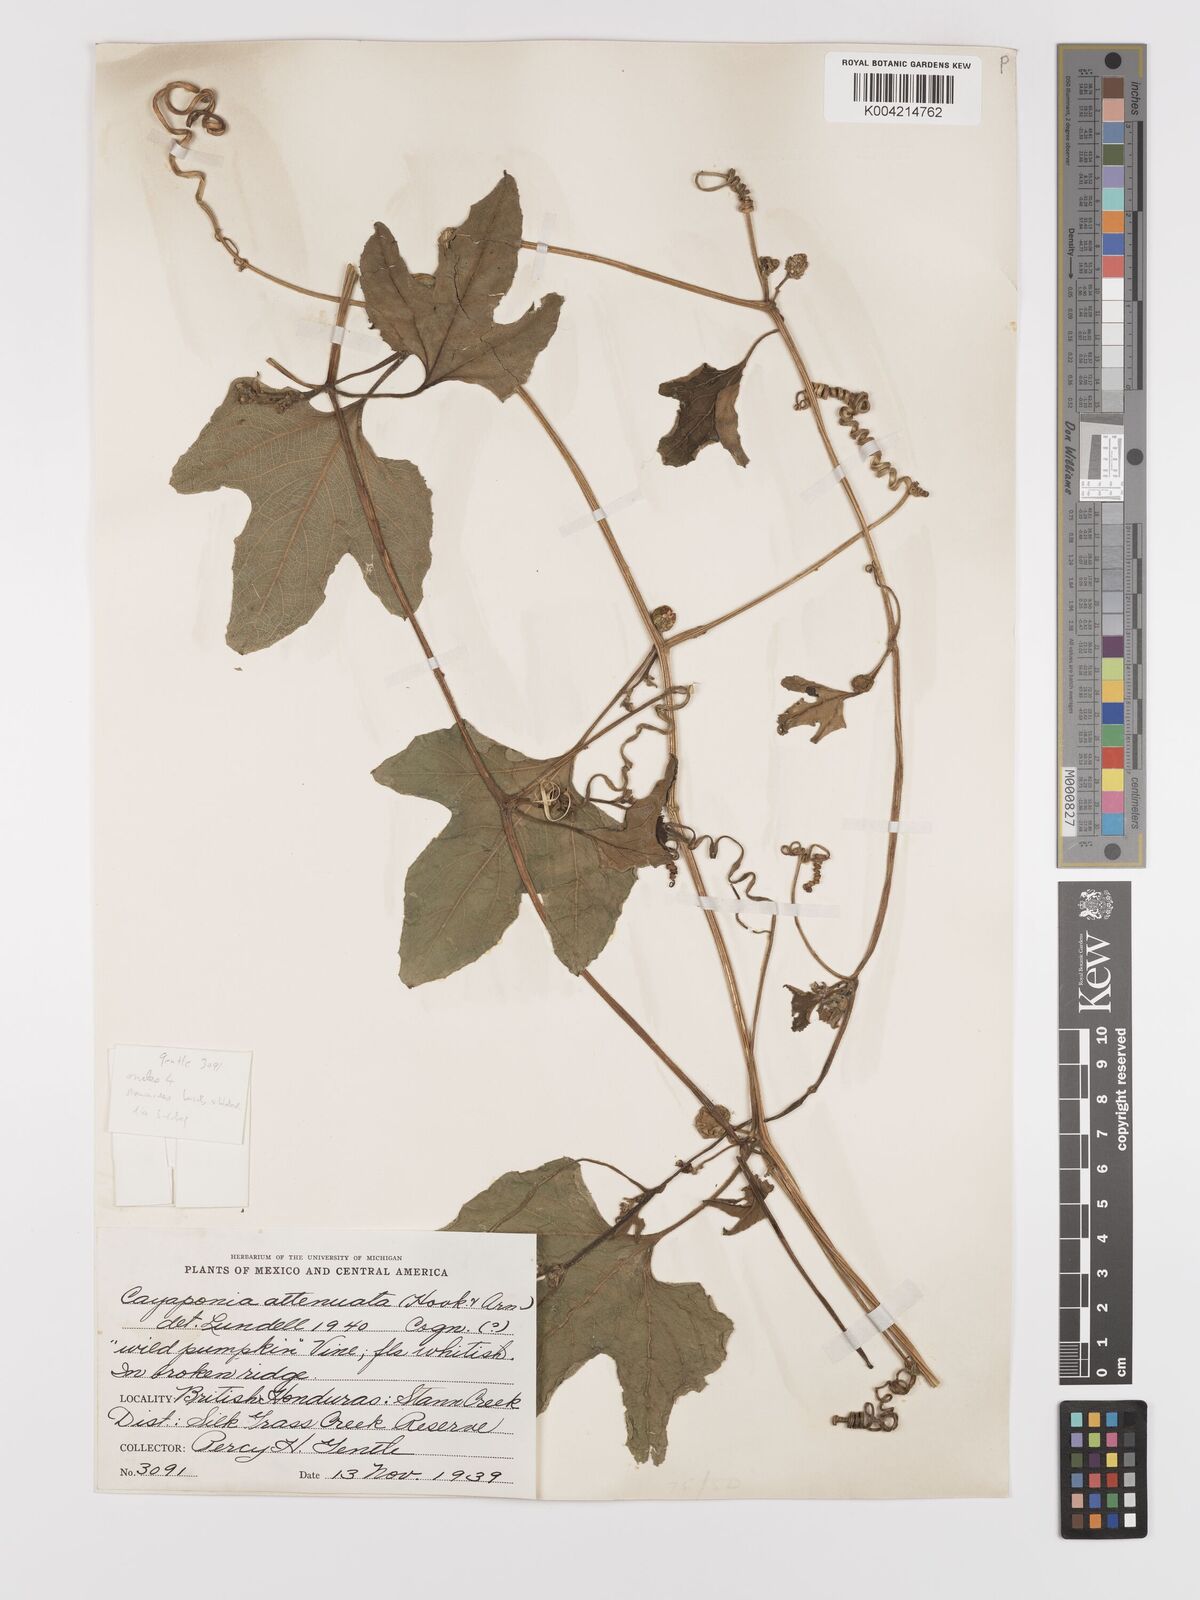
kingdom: Plantae
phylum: Tracheophyta
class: Magnoliopsida
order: Cucurbitales
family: Cucurbitaceae
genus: Cayaponia
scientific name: Cayaponia attenuata
